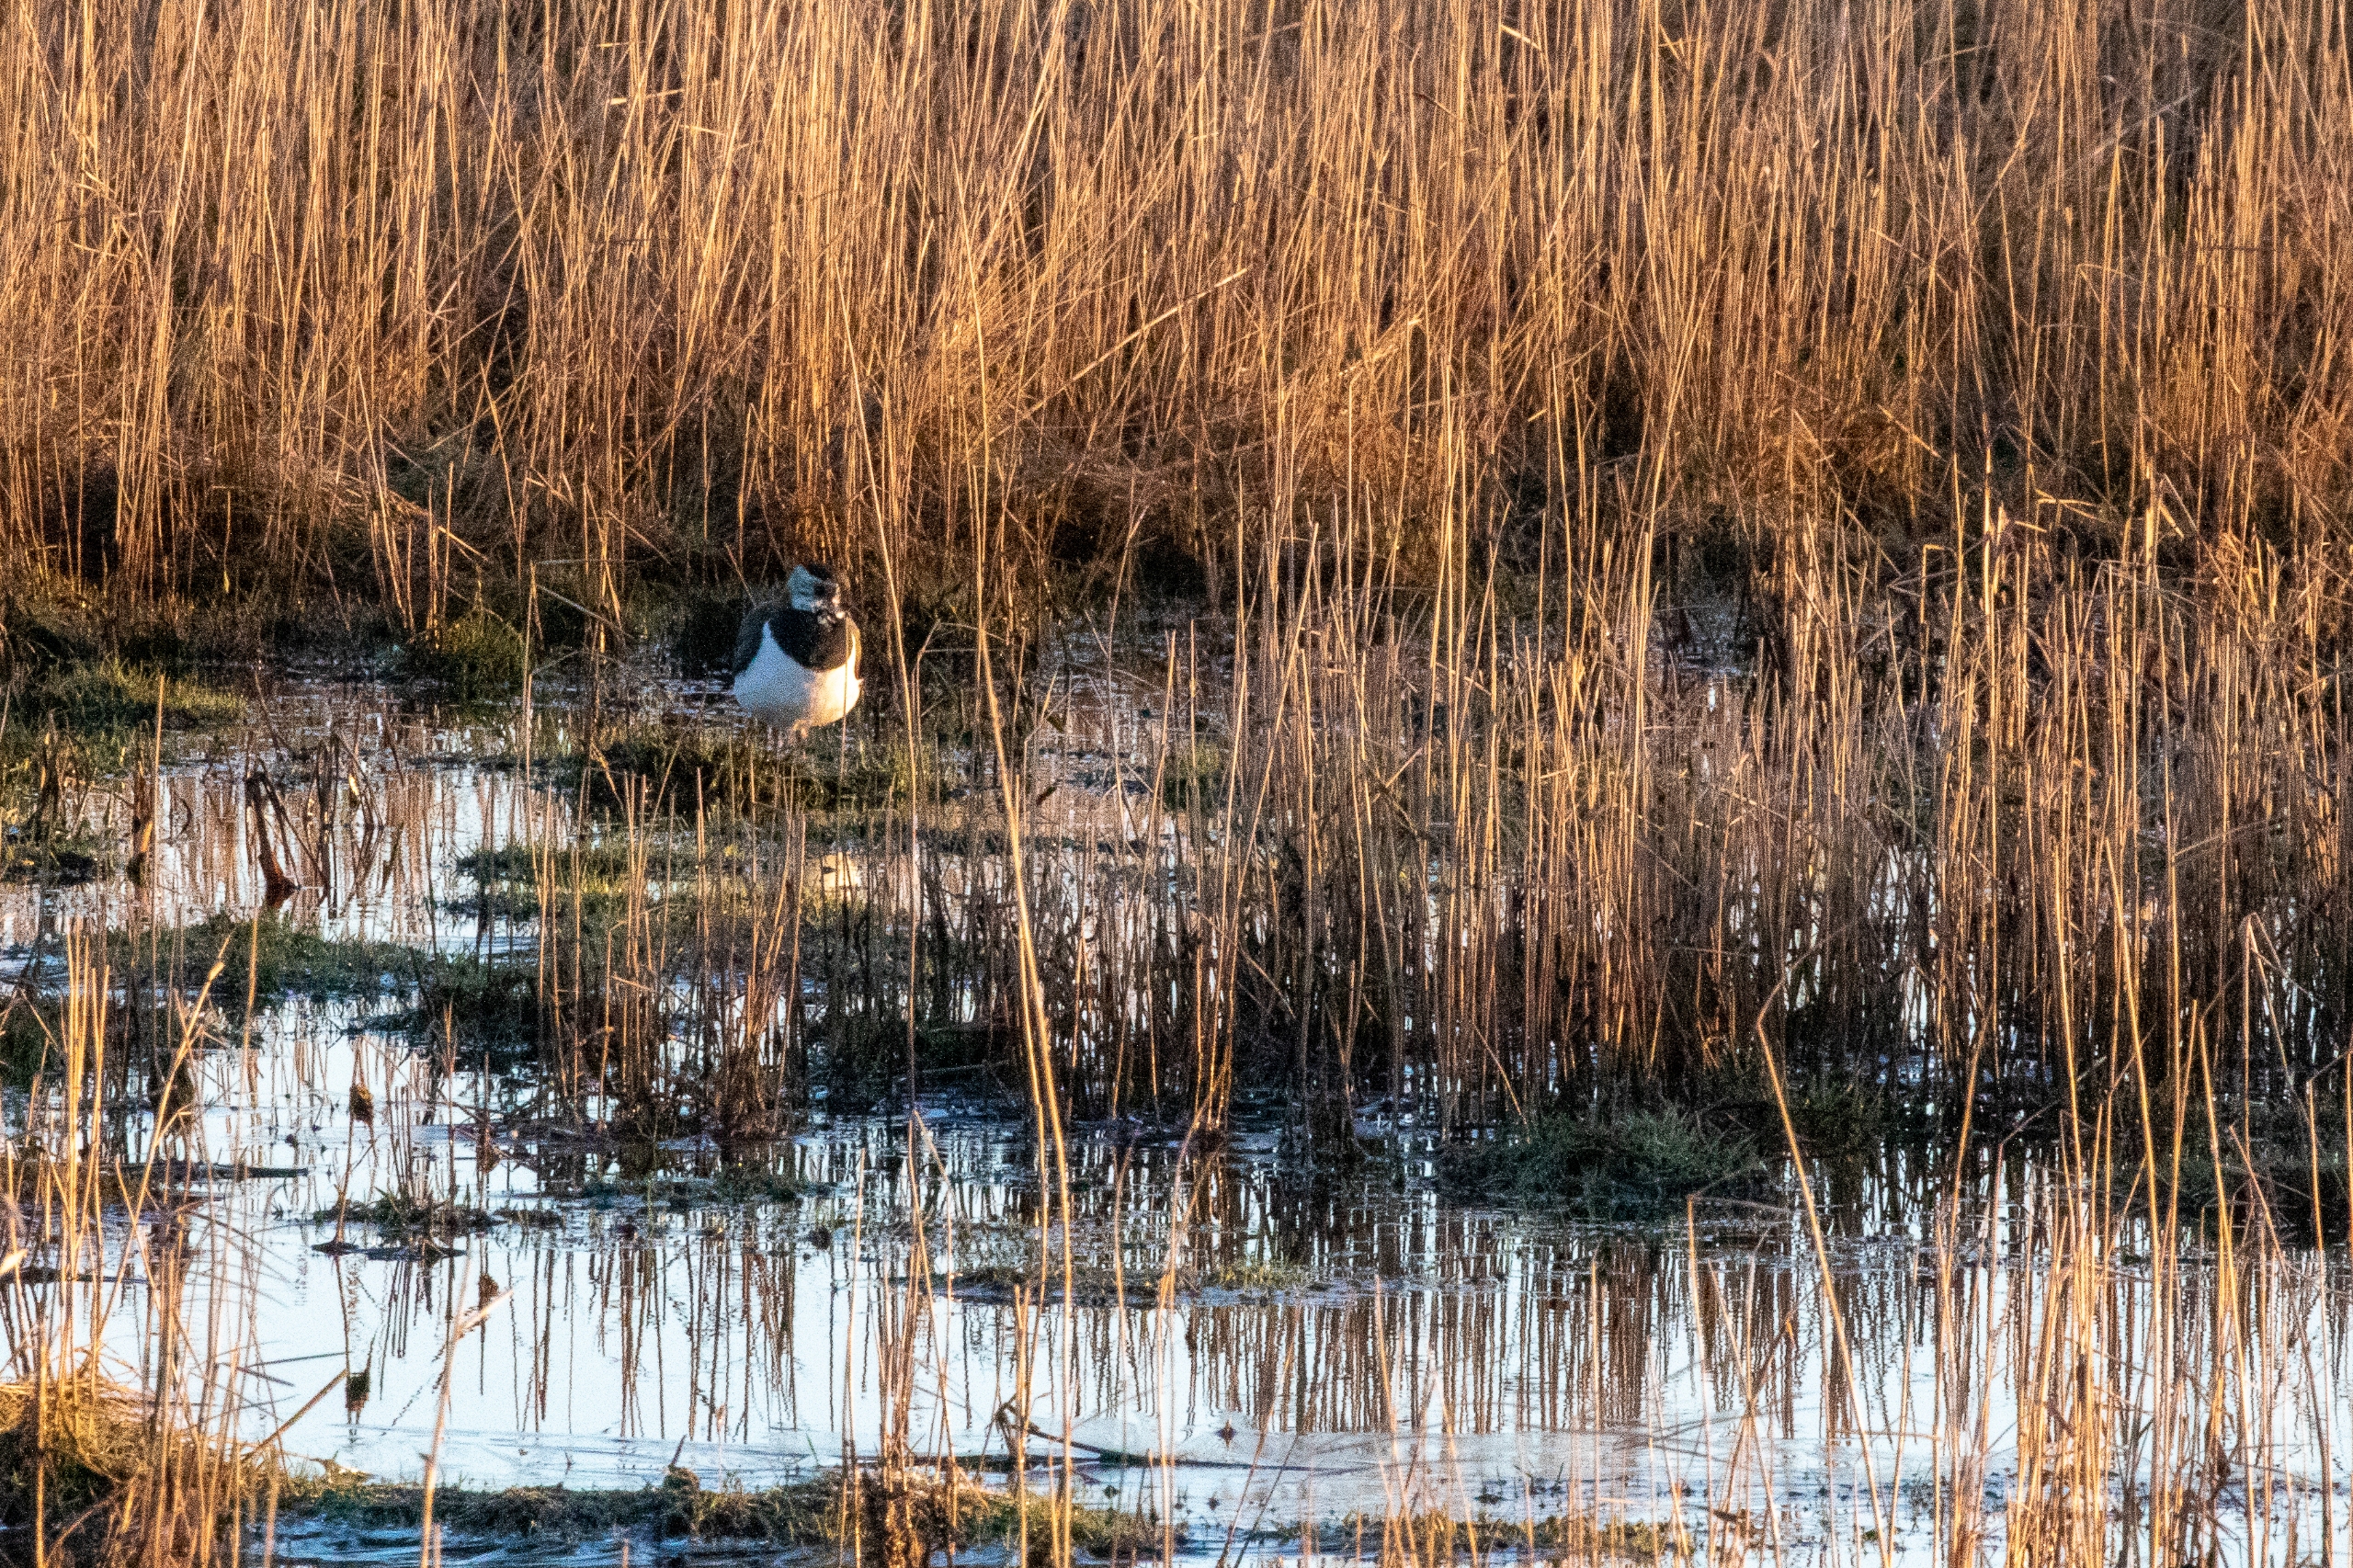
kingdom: Animalia
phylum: Chordata
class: Aves
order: Charadriiformes
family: Charadriidae
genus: Vanellus
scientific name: Vanellus vanellus
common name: Vibe
